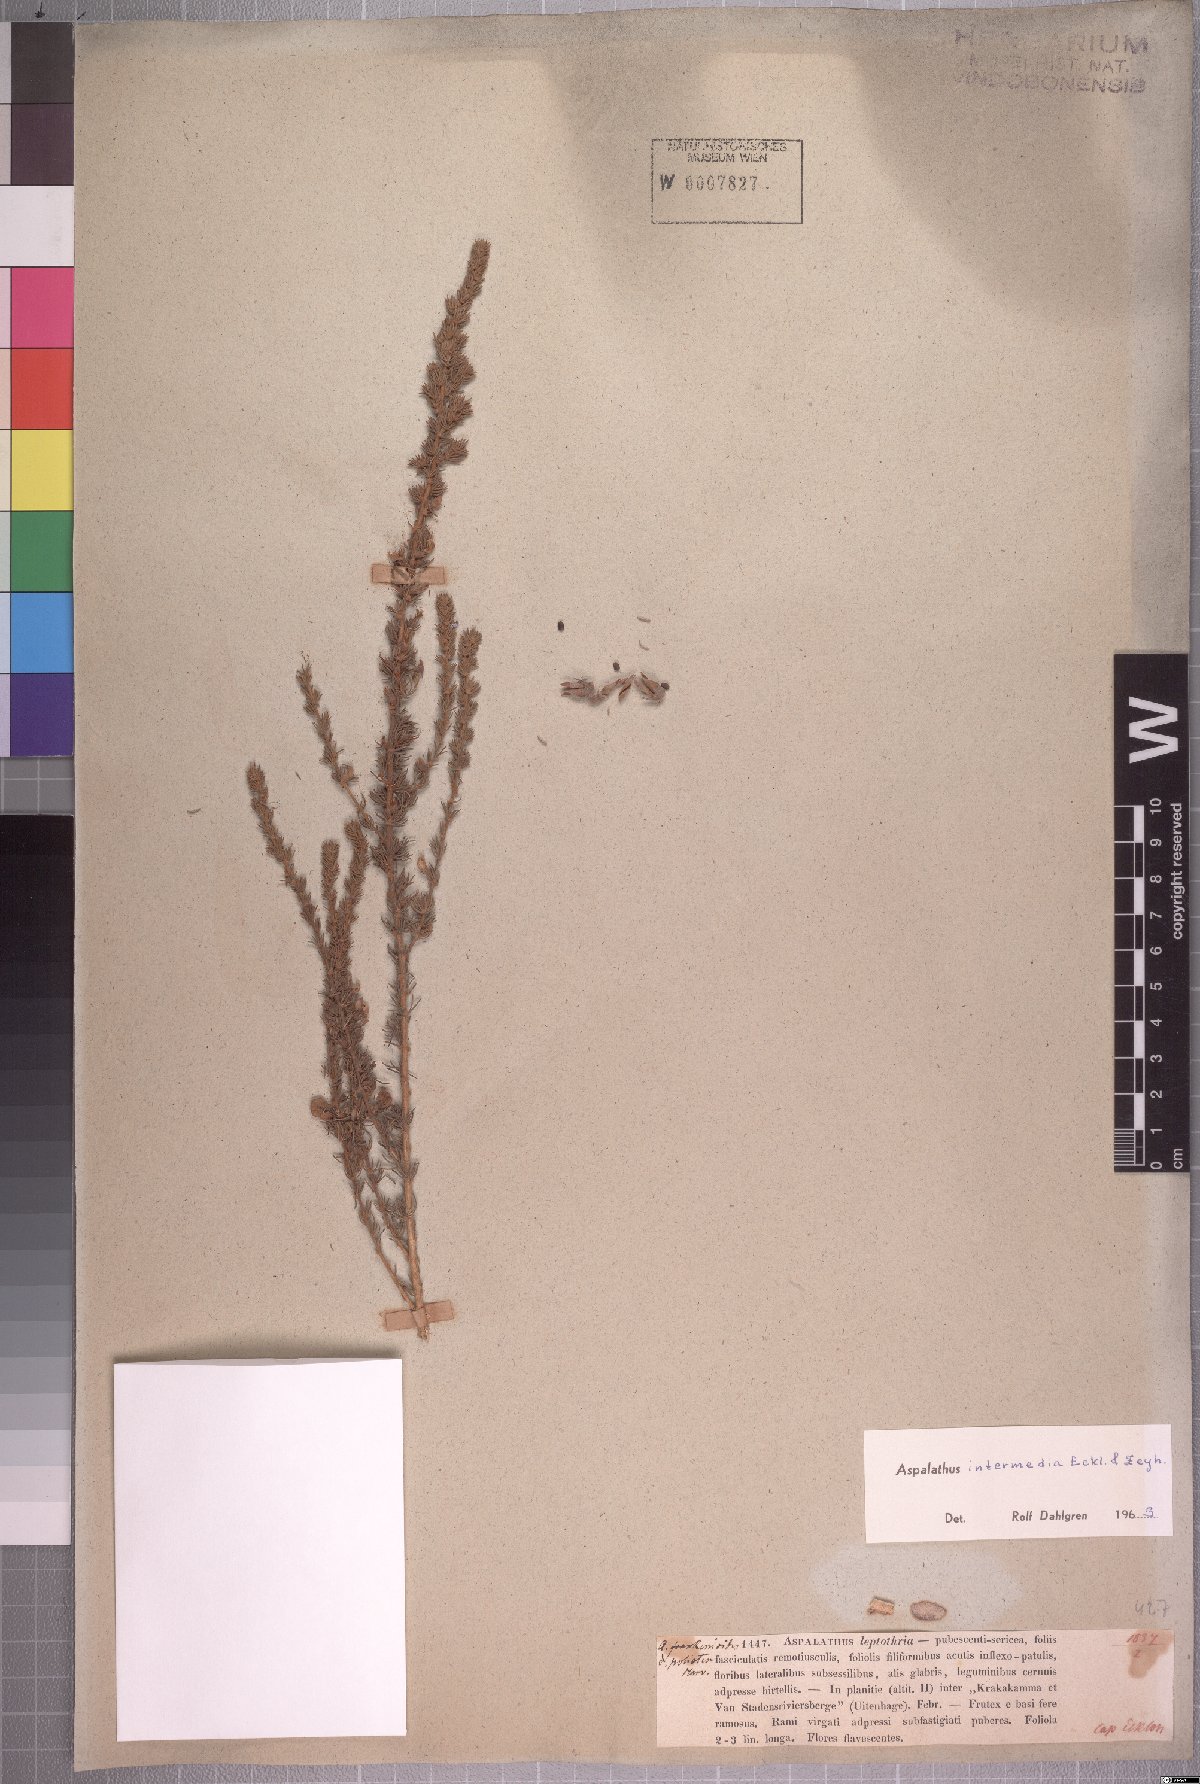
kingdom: Plantae
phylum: Tracheophyta
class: Magnoliopsida
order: Fabales
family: Fabaceae
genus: Aspalathus
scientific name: Aspalathus intermedia
